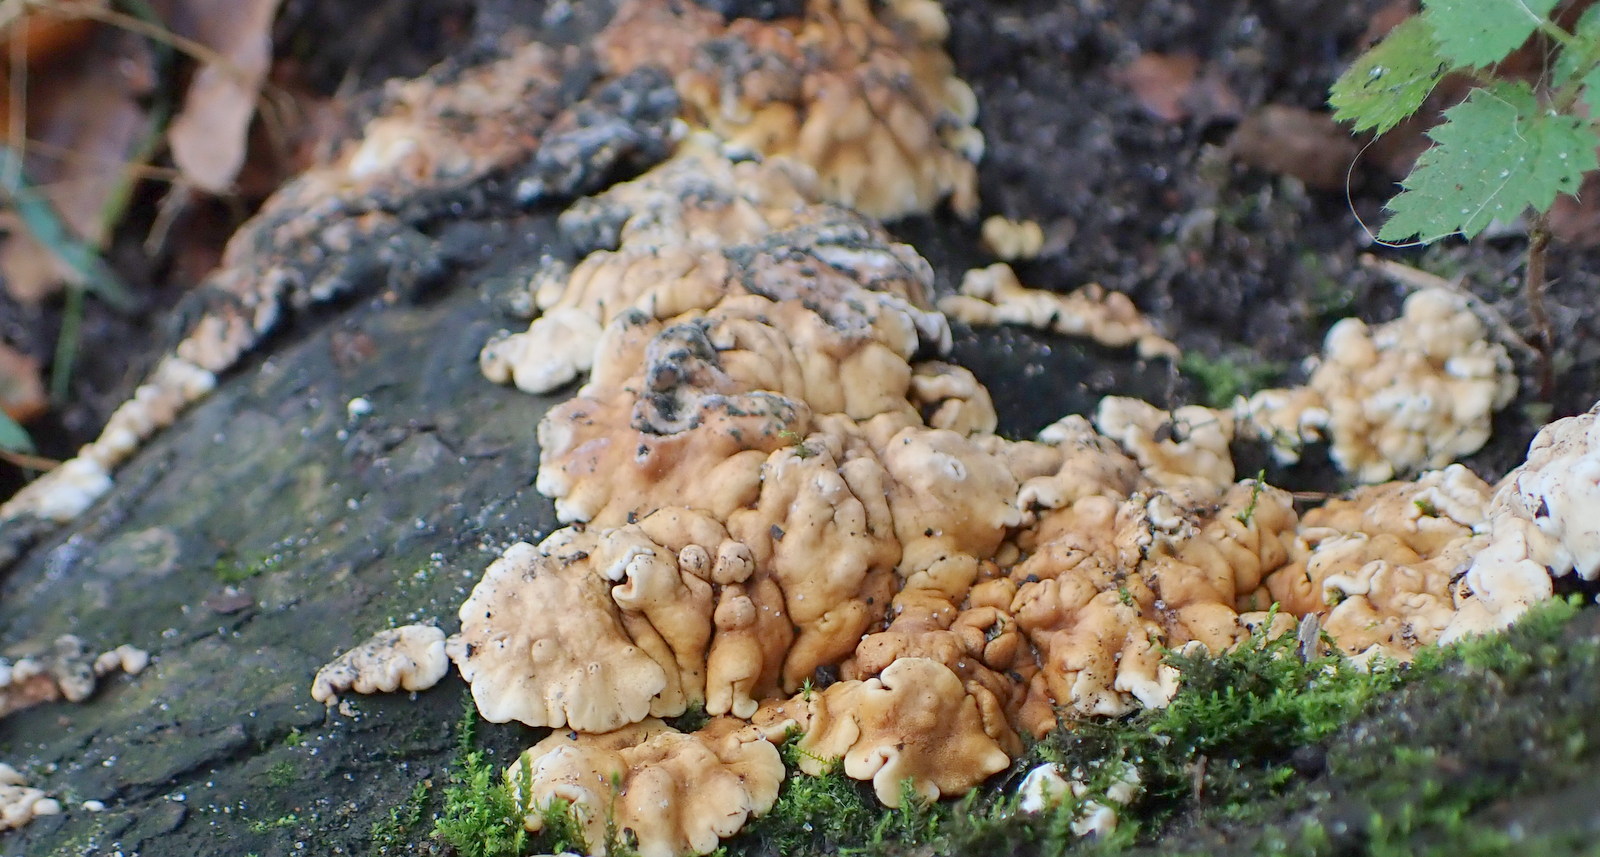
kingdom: Fungi
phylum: Ascomycota
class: Sordariomycetes
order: Hypocreales
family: Hypocreaceae
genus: Trichoderma
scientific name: Trichoderma britdaniae
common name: pilemose-kødkerne
